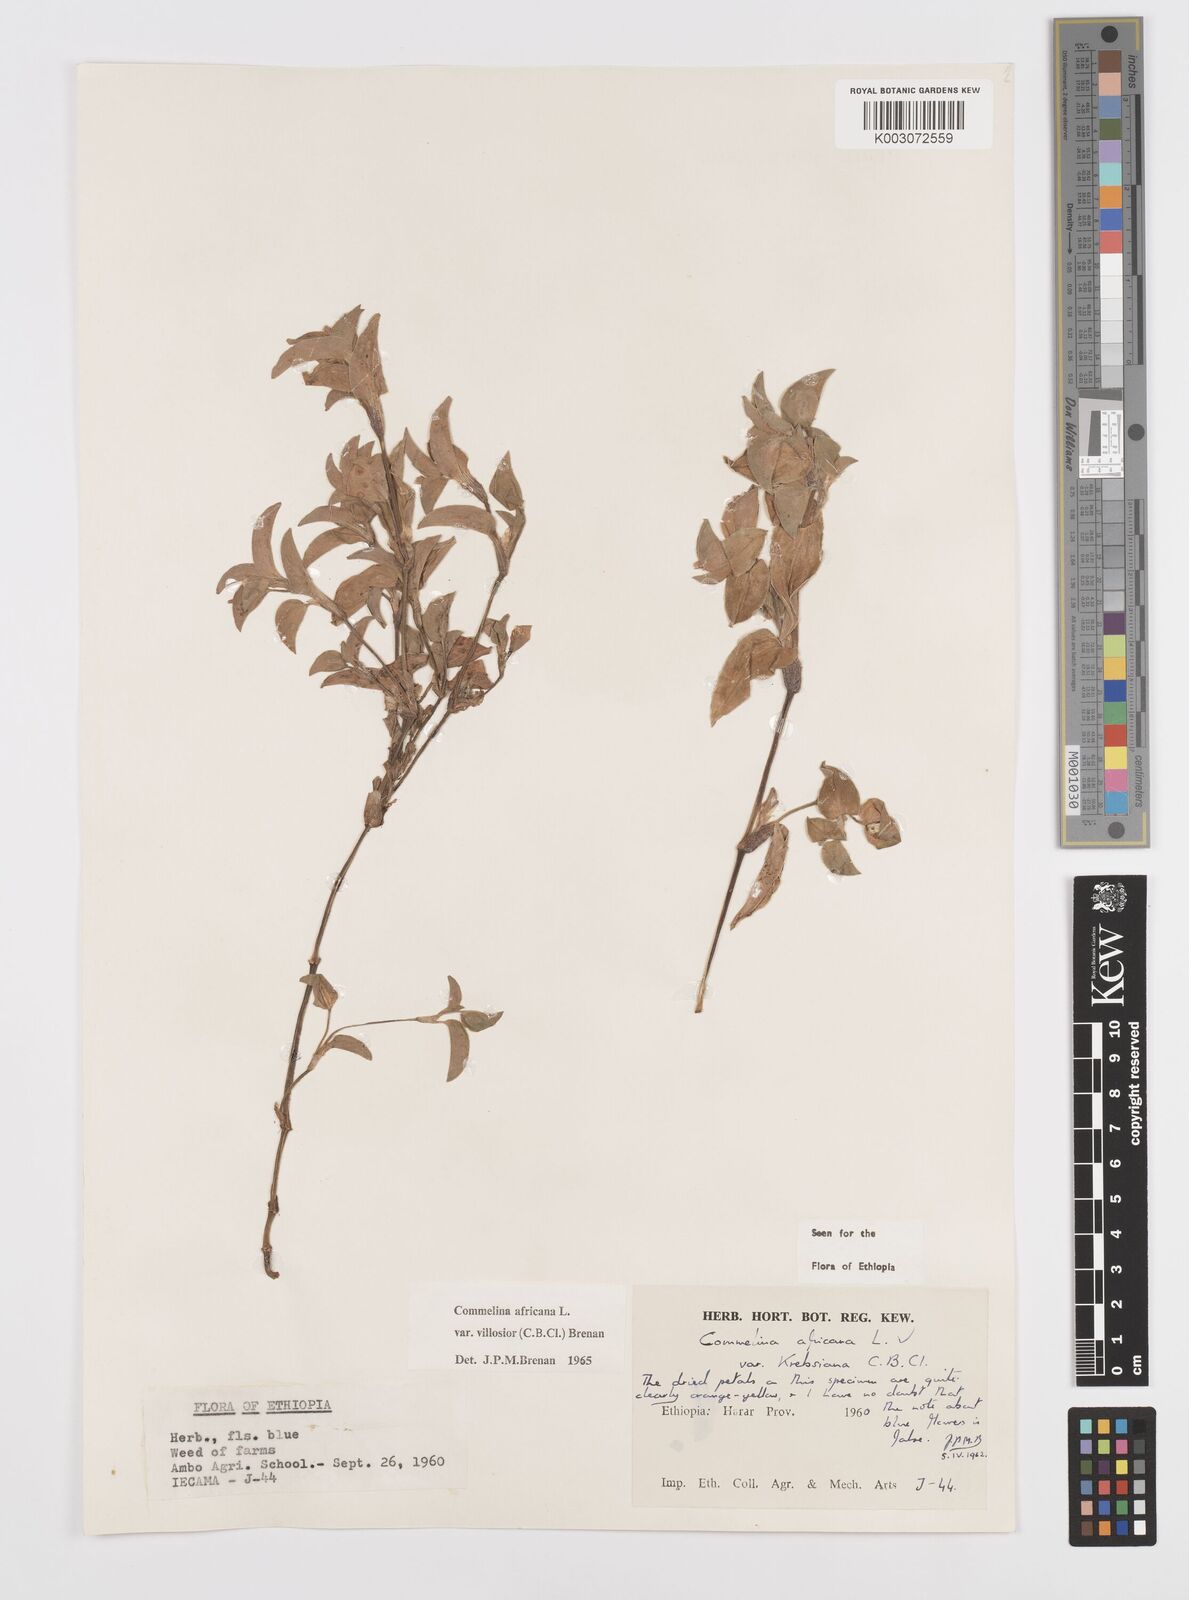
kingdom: Plantae
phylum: Tracheophyta
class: Liliopsida
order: Commelinales
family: Commelinaceae
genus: Commelina
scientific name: Commelina africana
